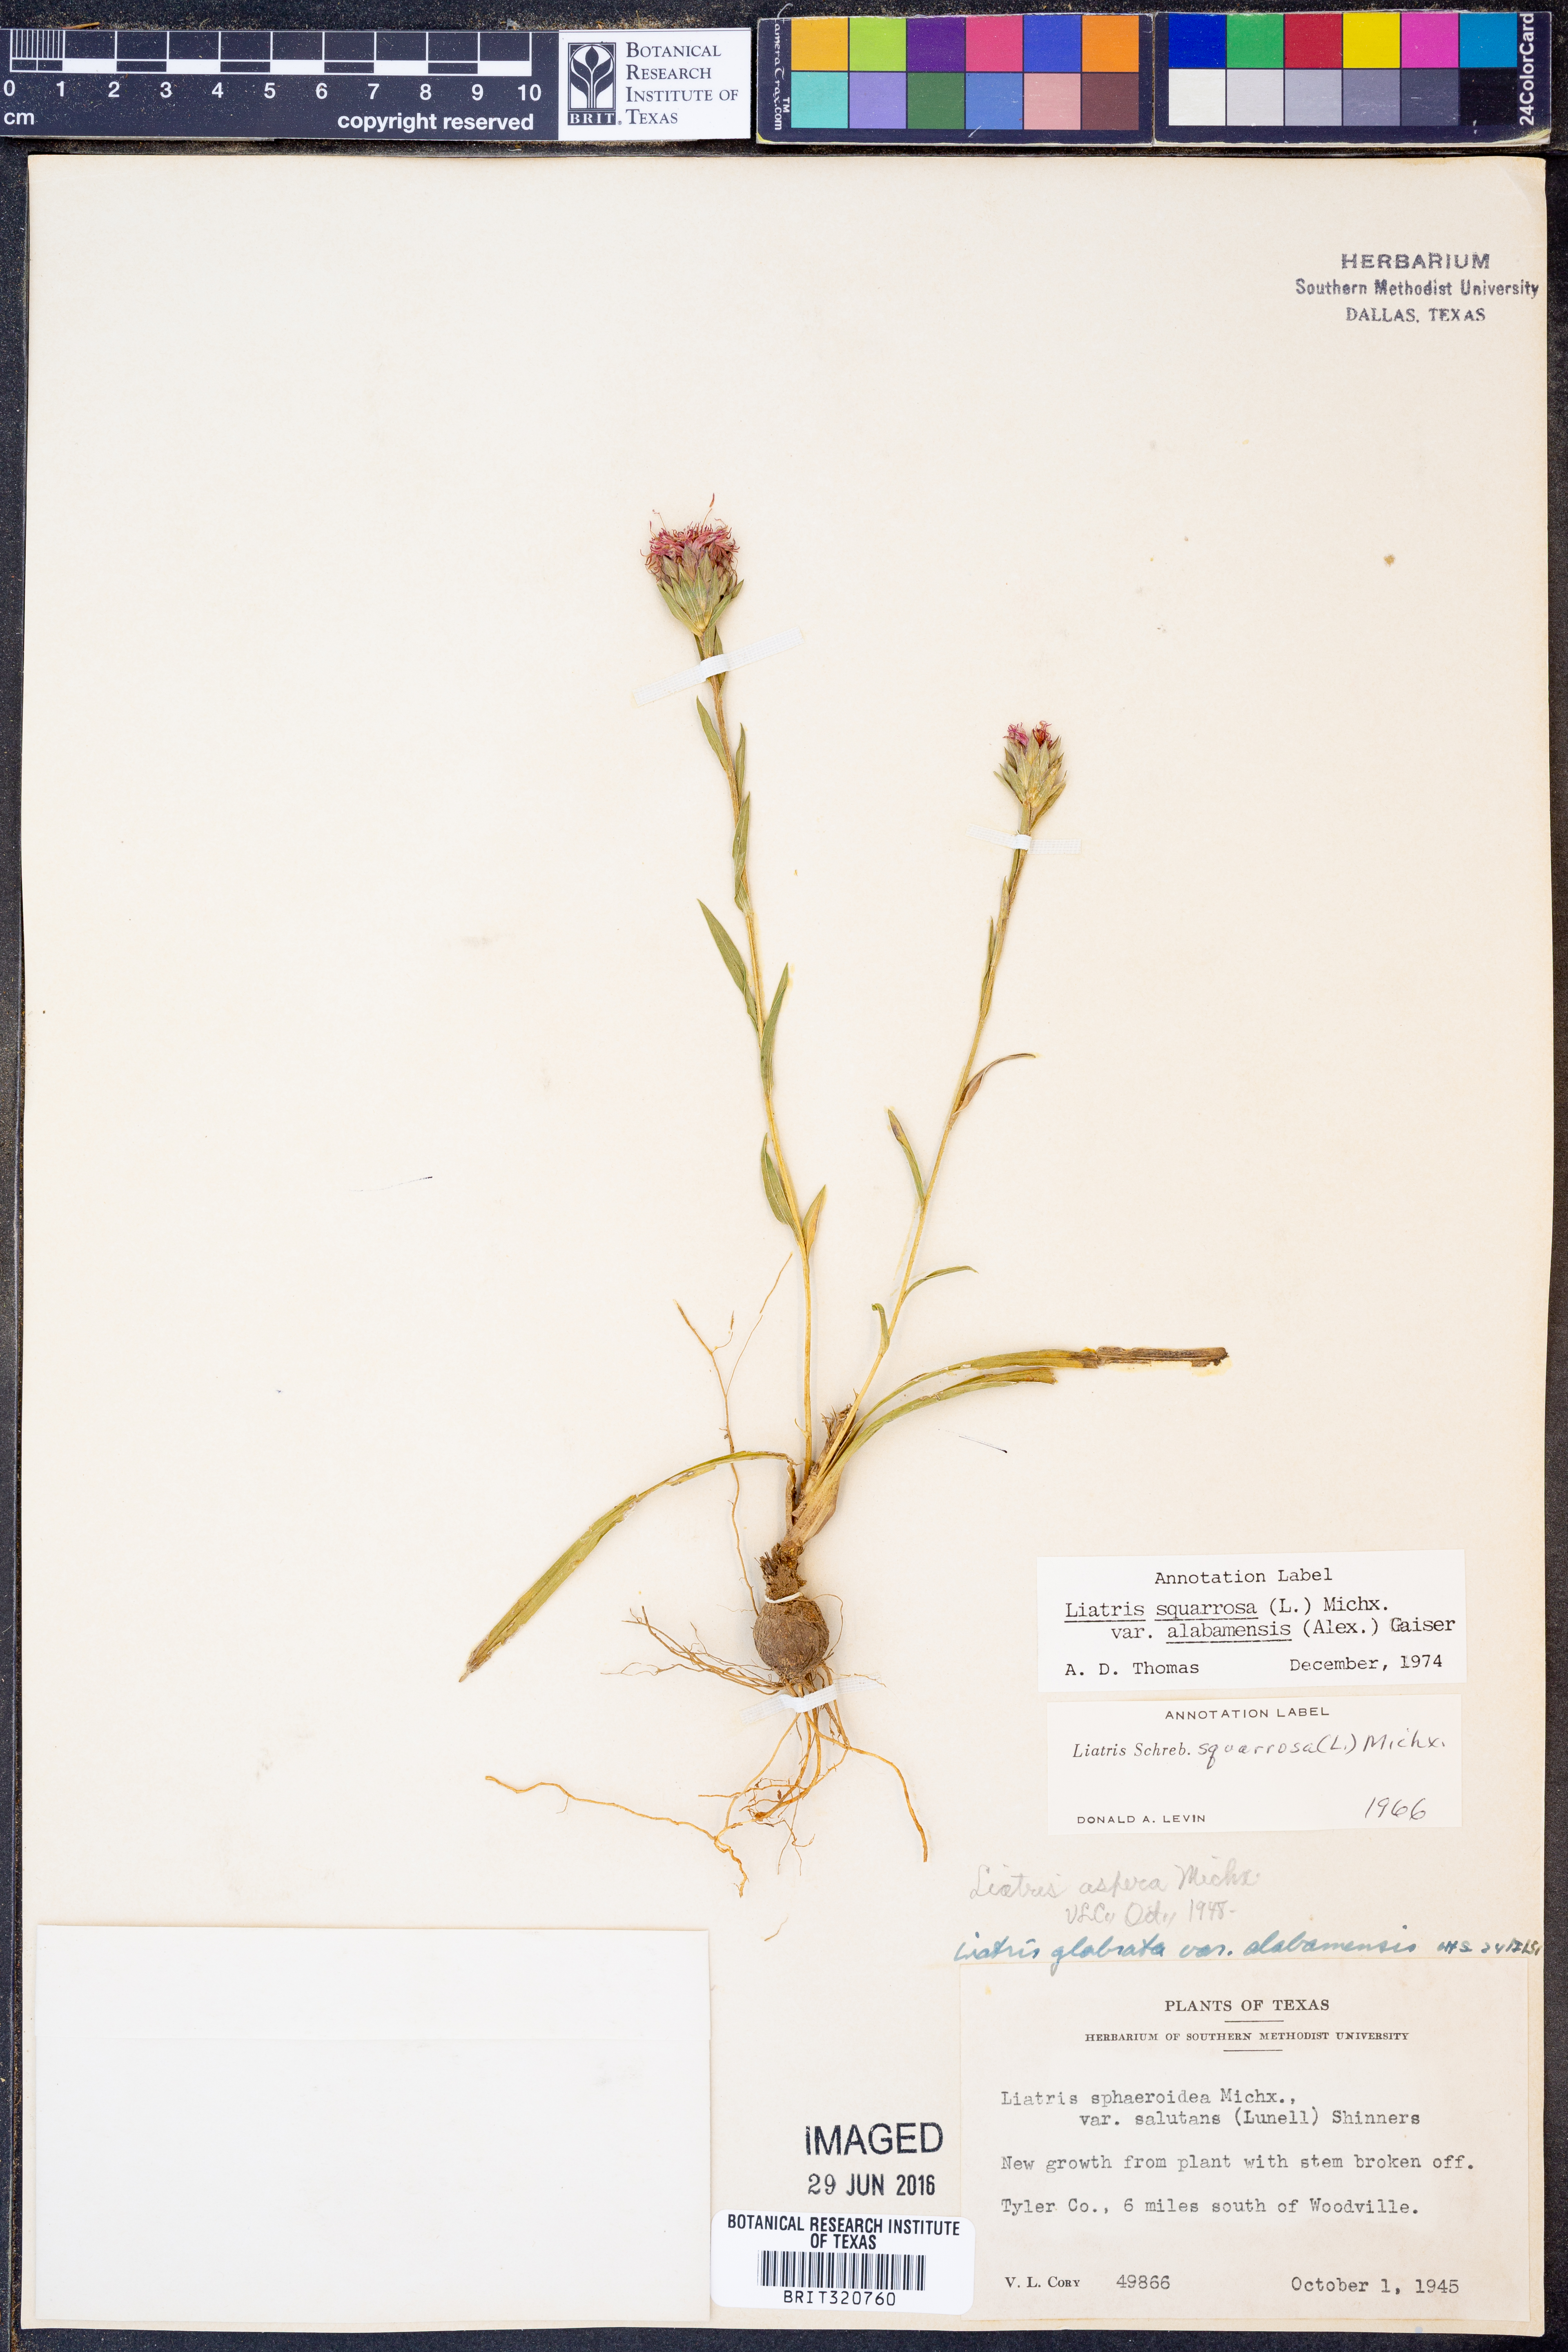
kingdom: Plantae
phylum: Tracheophyta
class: Magnoliopsida
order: Asterales
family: Asteraceae
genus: Liatris
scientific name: Liatris squarrosa
